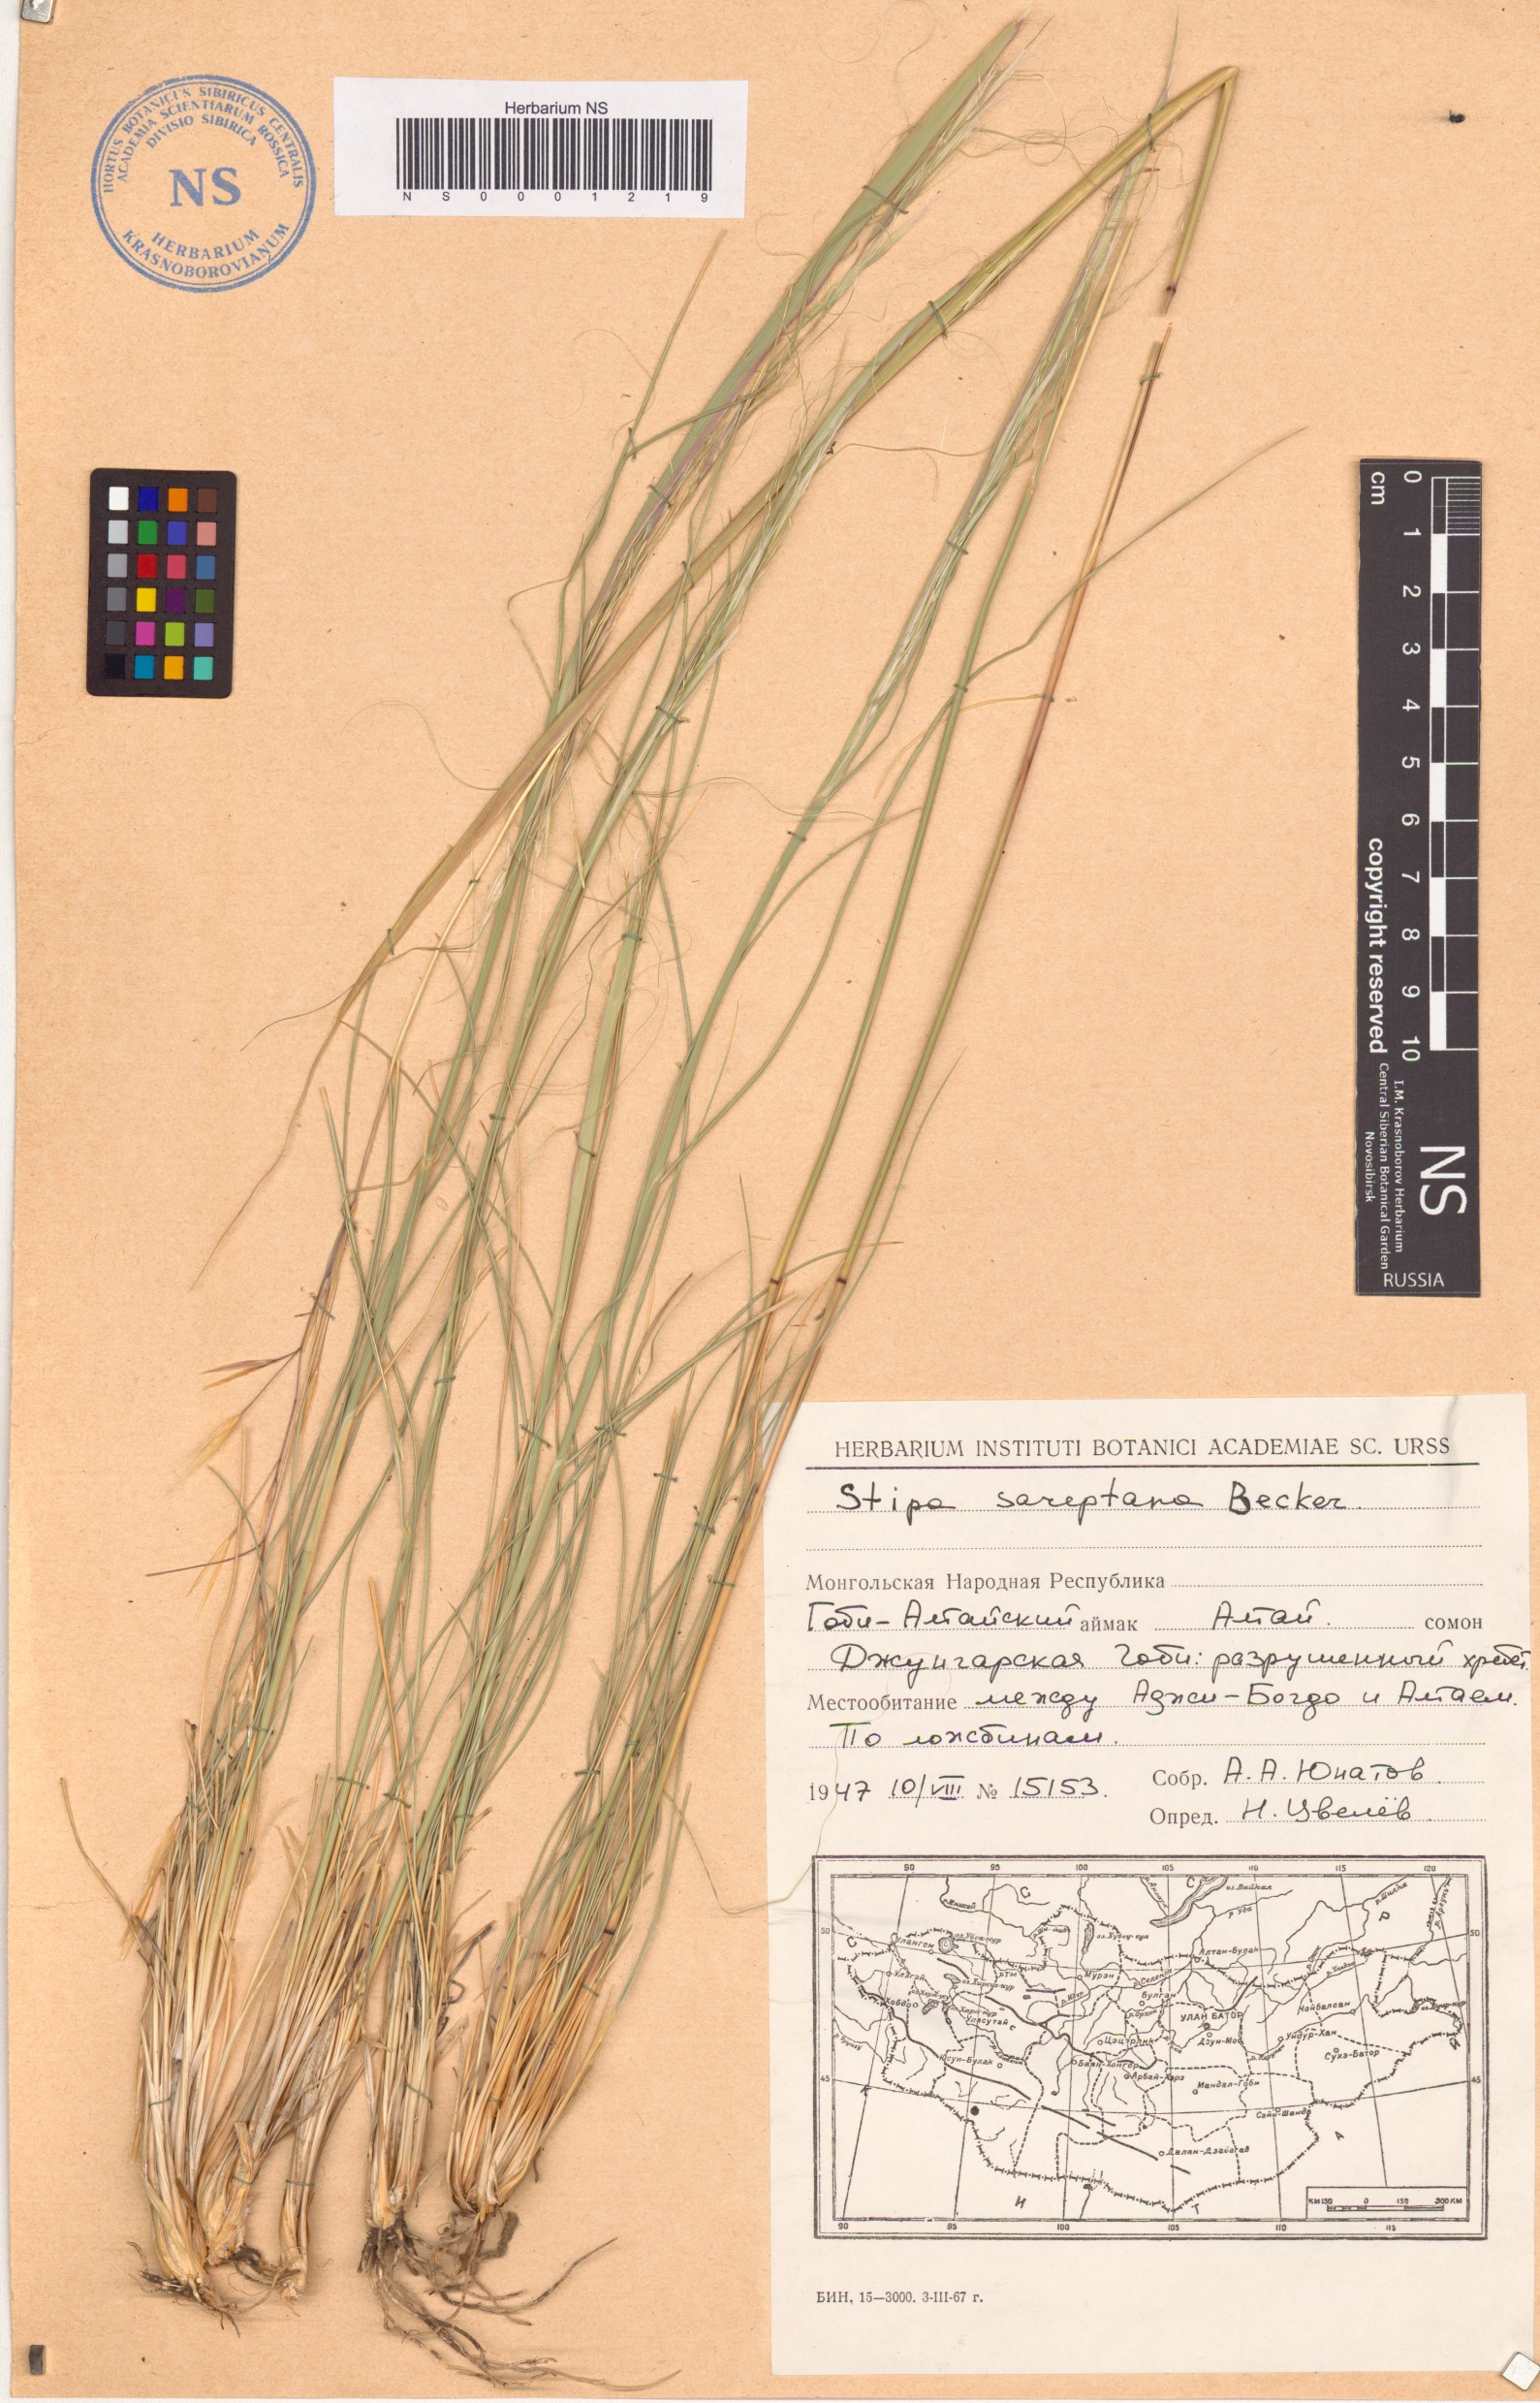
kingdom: Plantae
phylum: Tracheophyta
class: Liliopsida
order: Poales
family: Poaceae
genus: Stipa
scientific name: Stipa sareptana
